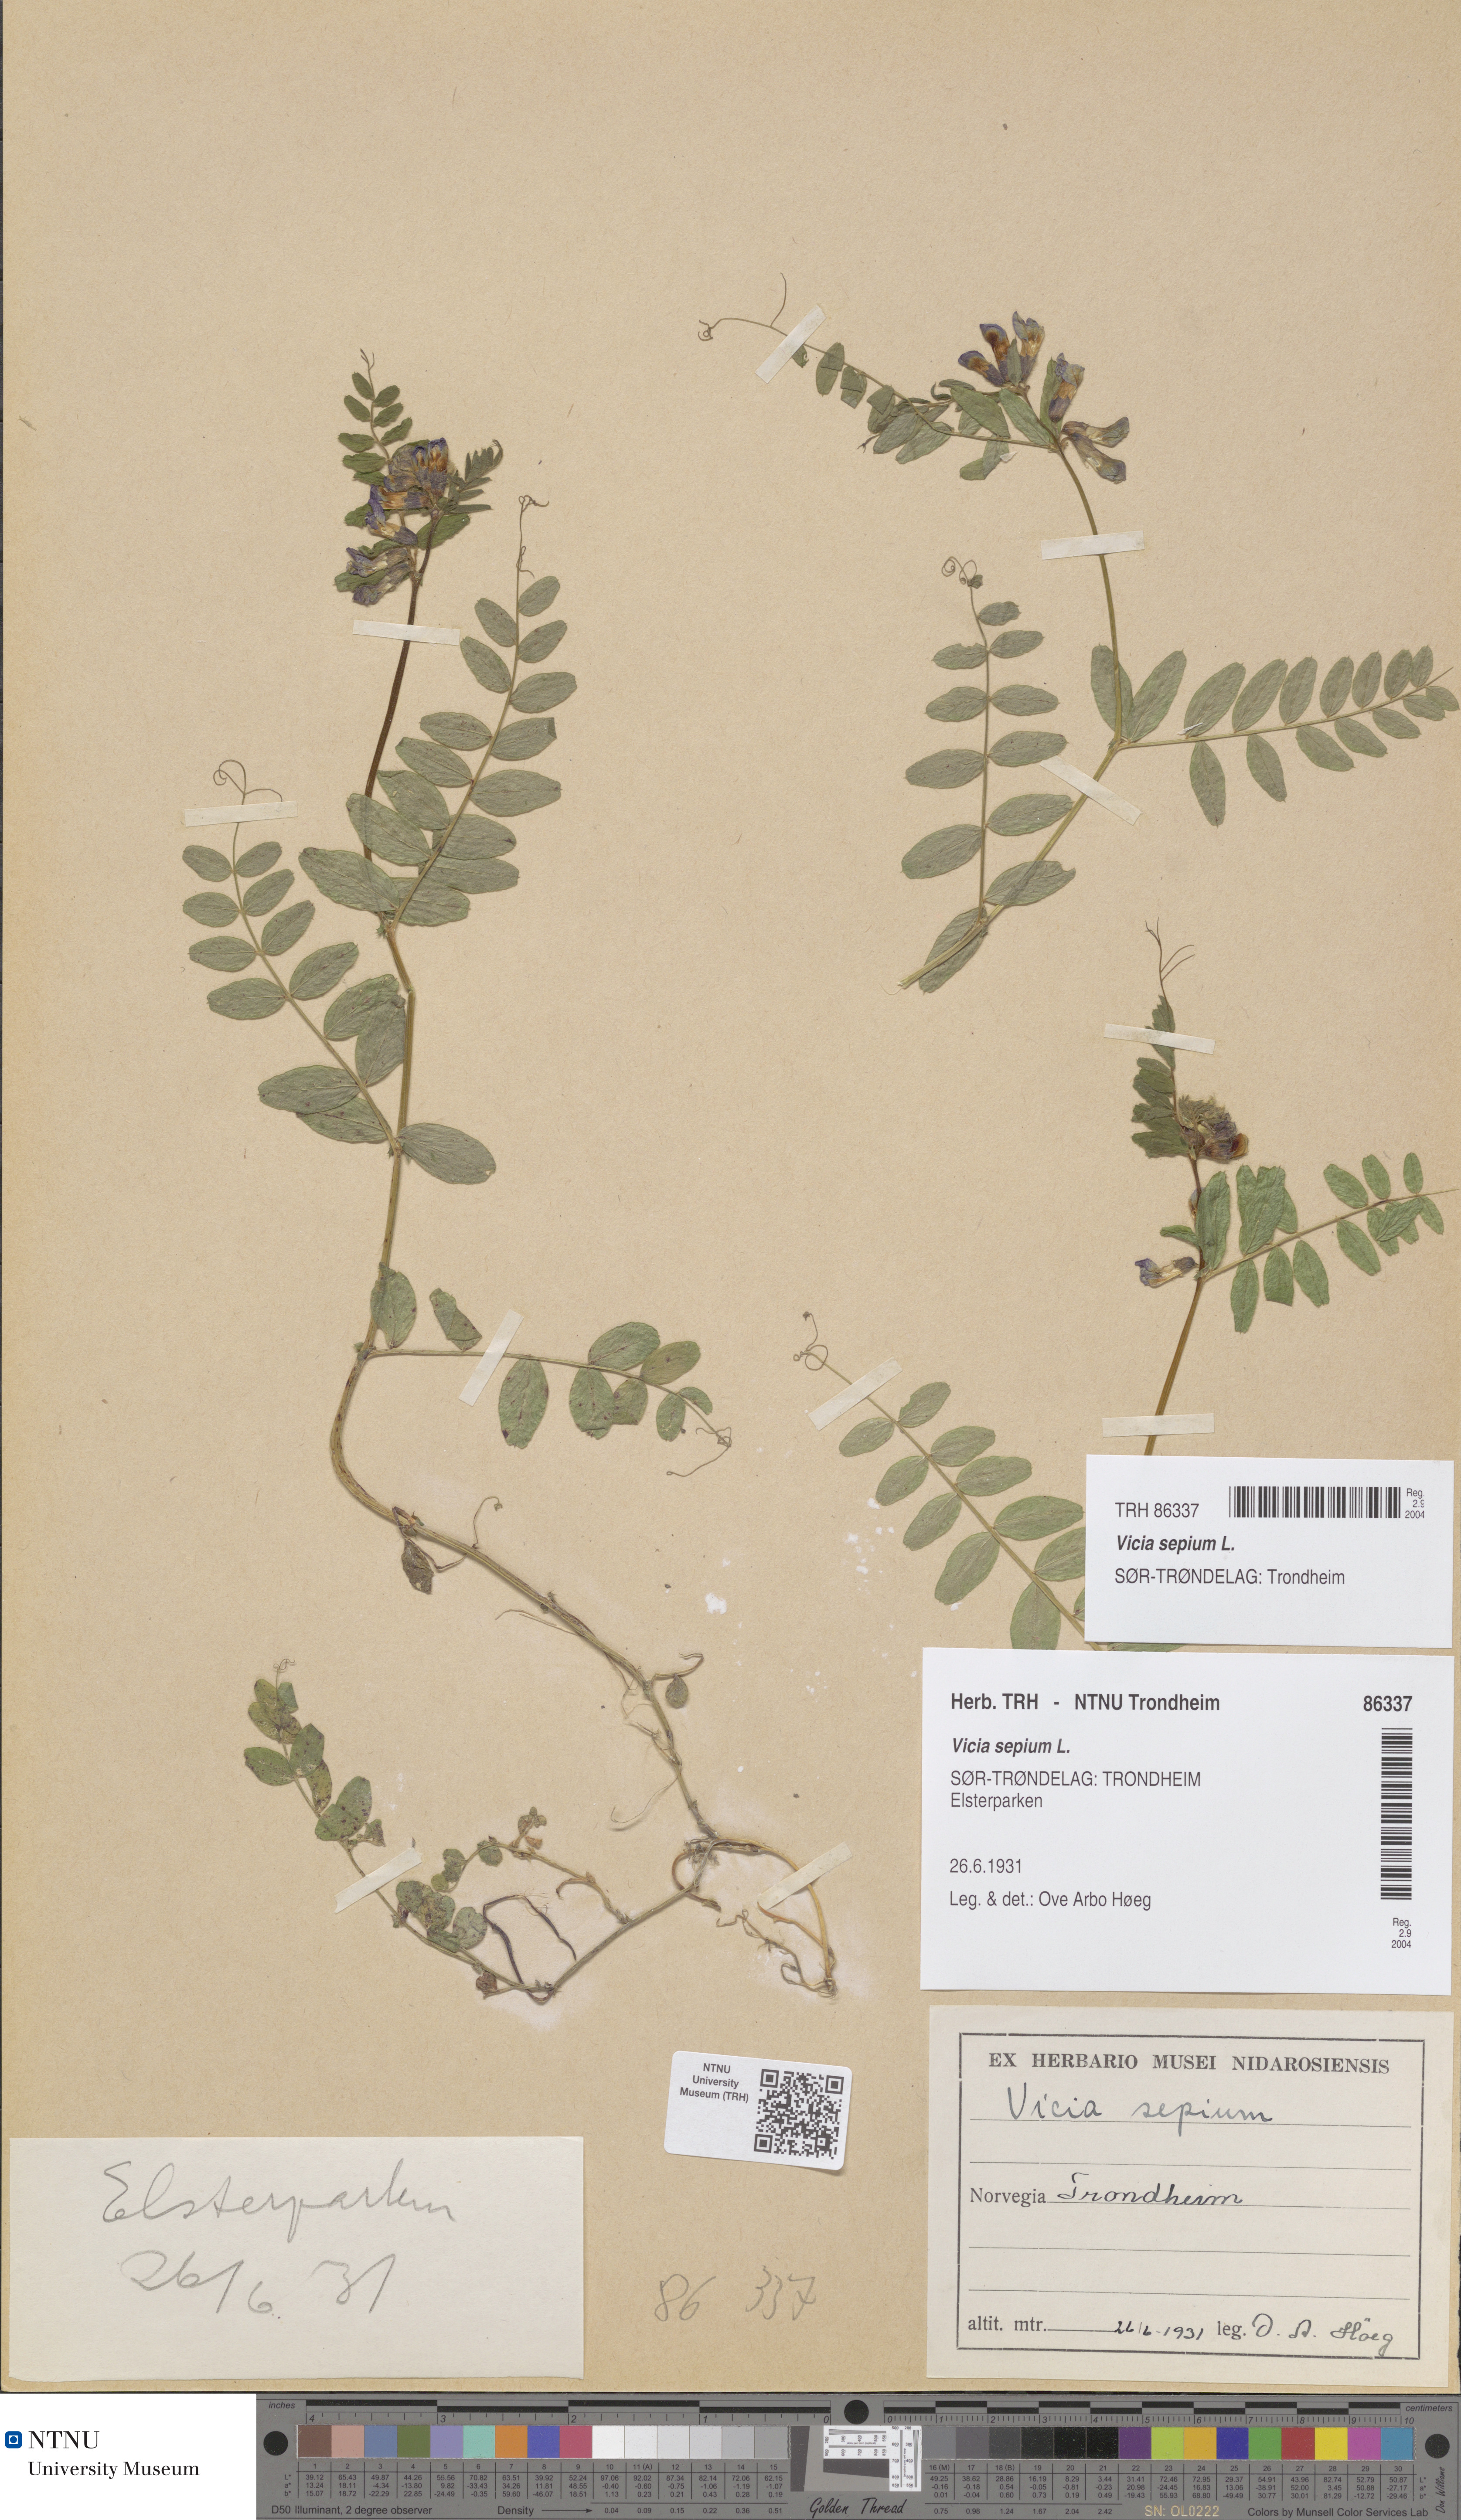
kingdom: Plantae
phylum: Tracheophyta
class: Magnoliopsida
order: Fabales
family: Fabaceae
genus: Vicia
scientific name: Vicia sepium
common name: Bush vetch
